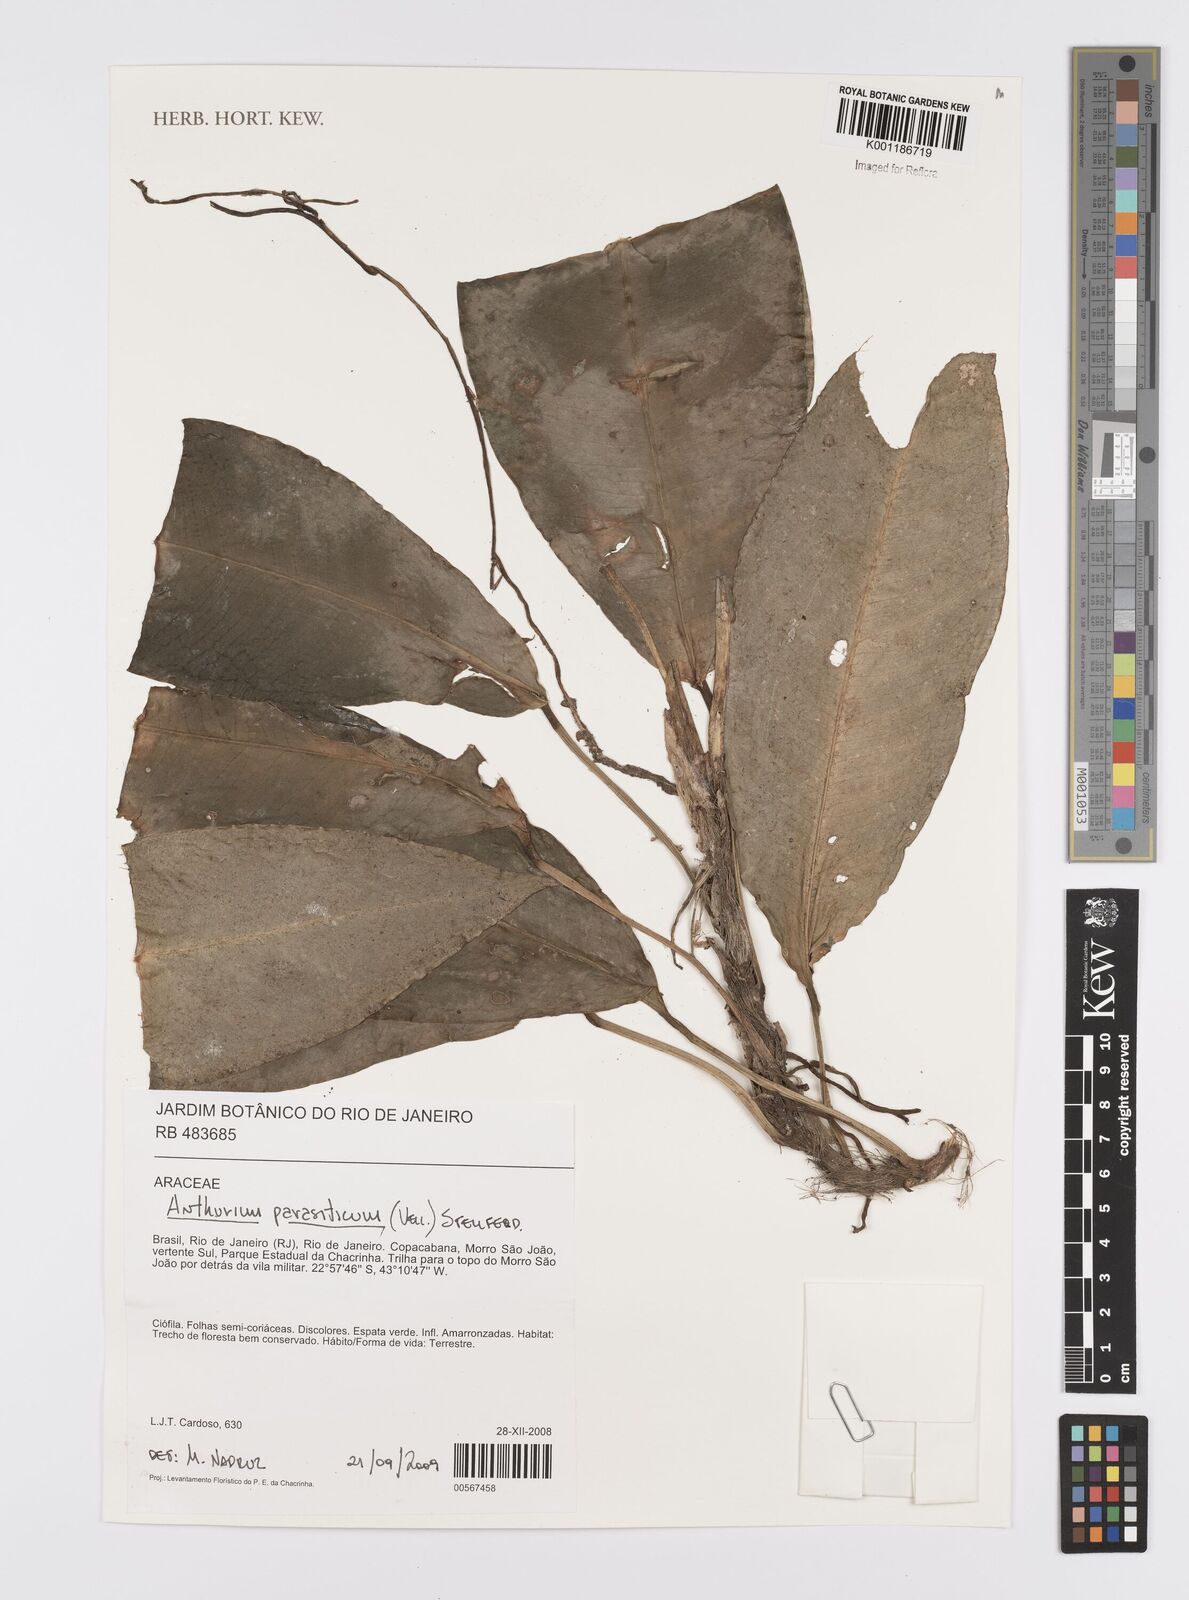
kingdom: Plantae
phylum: Tracheophyta
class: Liliopsida
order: Alismatales
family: Araceae
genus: Anthurium
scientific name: Anthurium parasiticum
